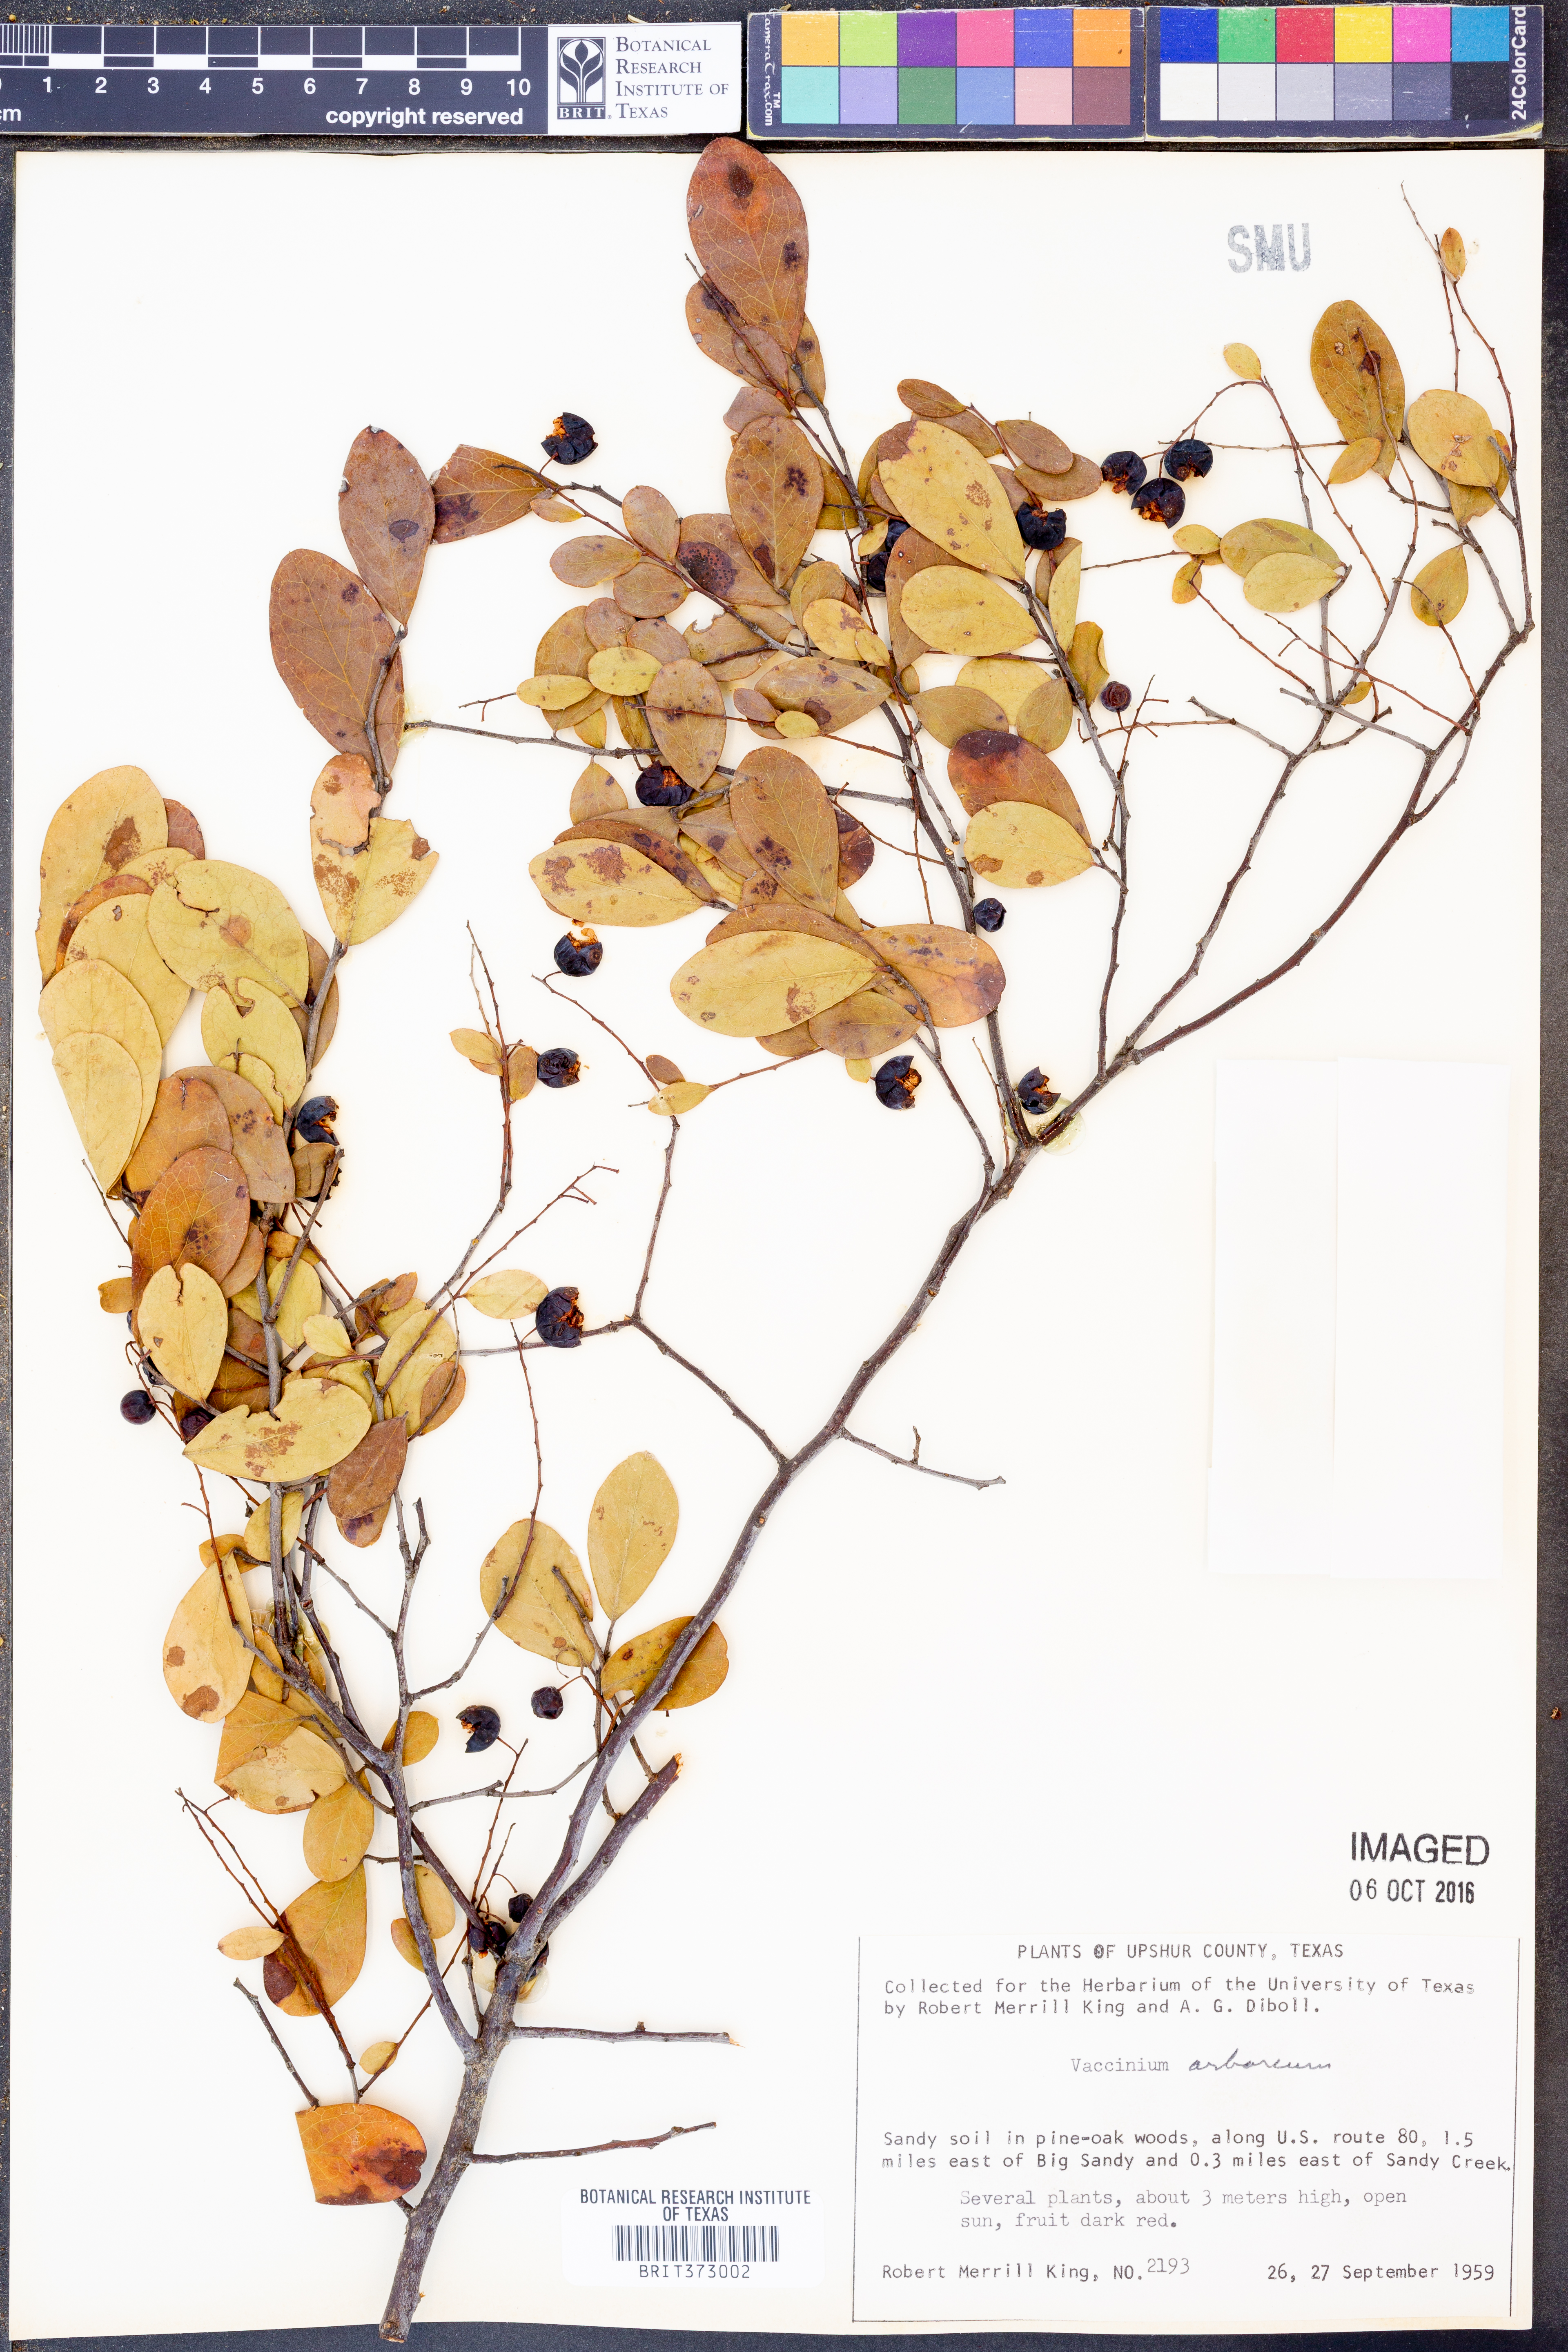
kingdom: Plantae
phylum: Tracheophyta
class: Magnoliopsida
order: Ericales
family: Ericaceae
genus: Vaccinium
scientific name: Vaccinium arboreum
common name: Farkleberry
